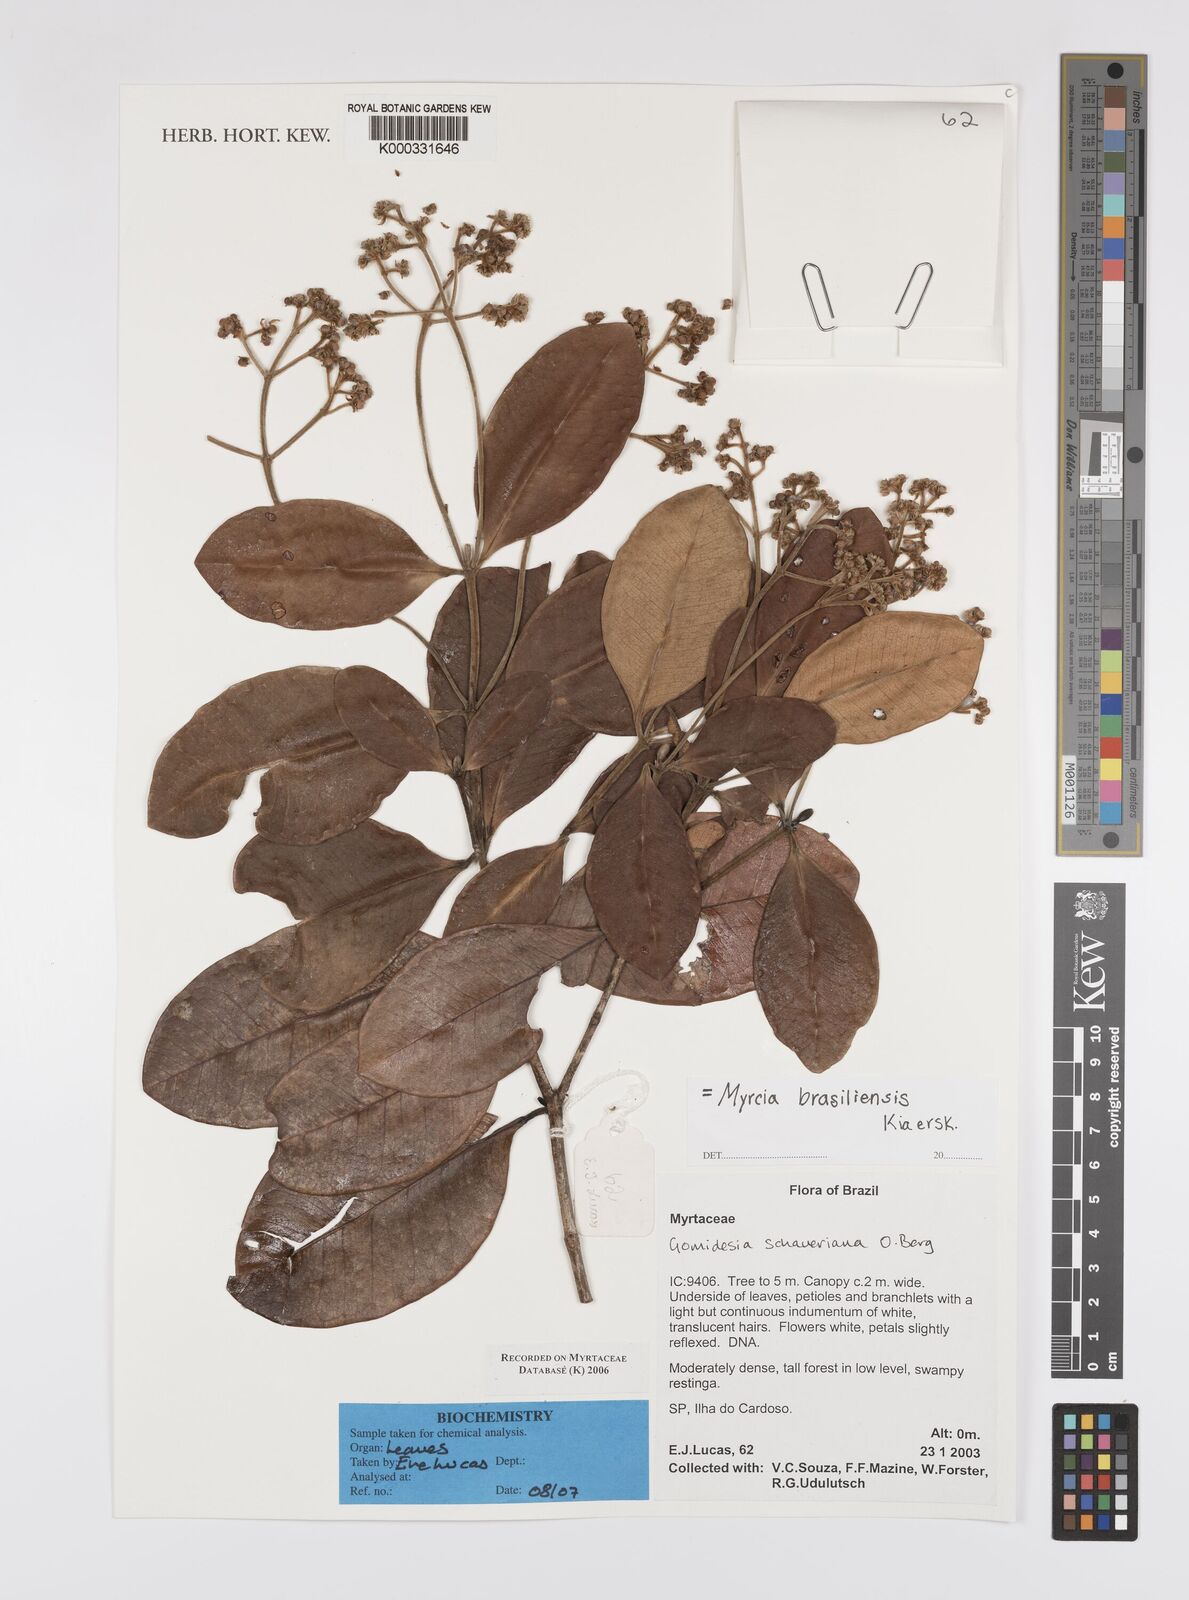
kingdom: Plantae
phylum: Tracheophyta
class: Magnoliopsida
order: Myrtales
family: Myrtaceae
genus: Myrcia
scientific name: Myrcia freyreissiana
